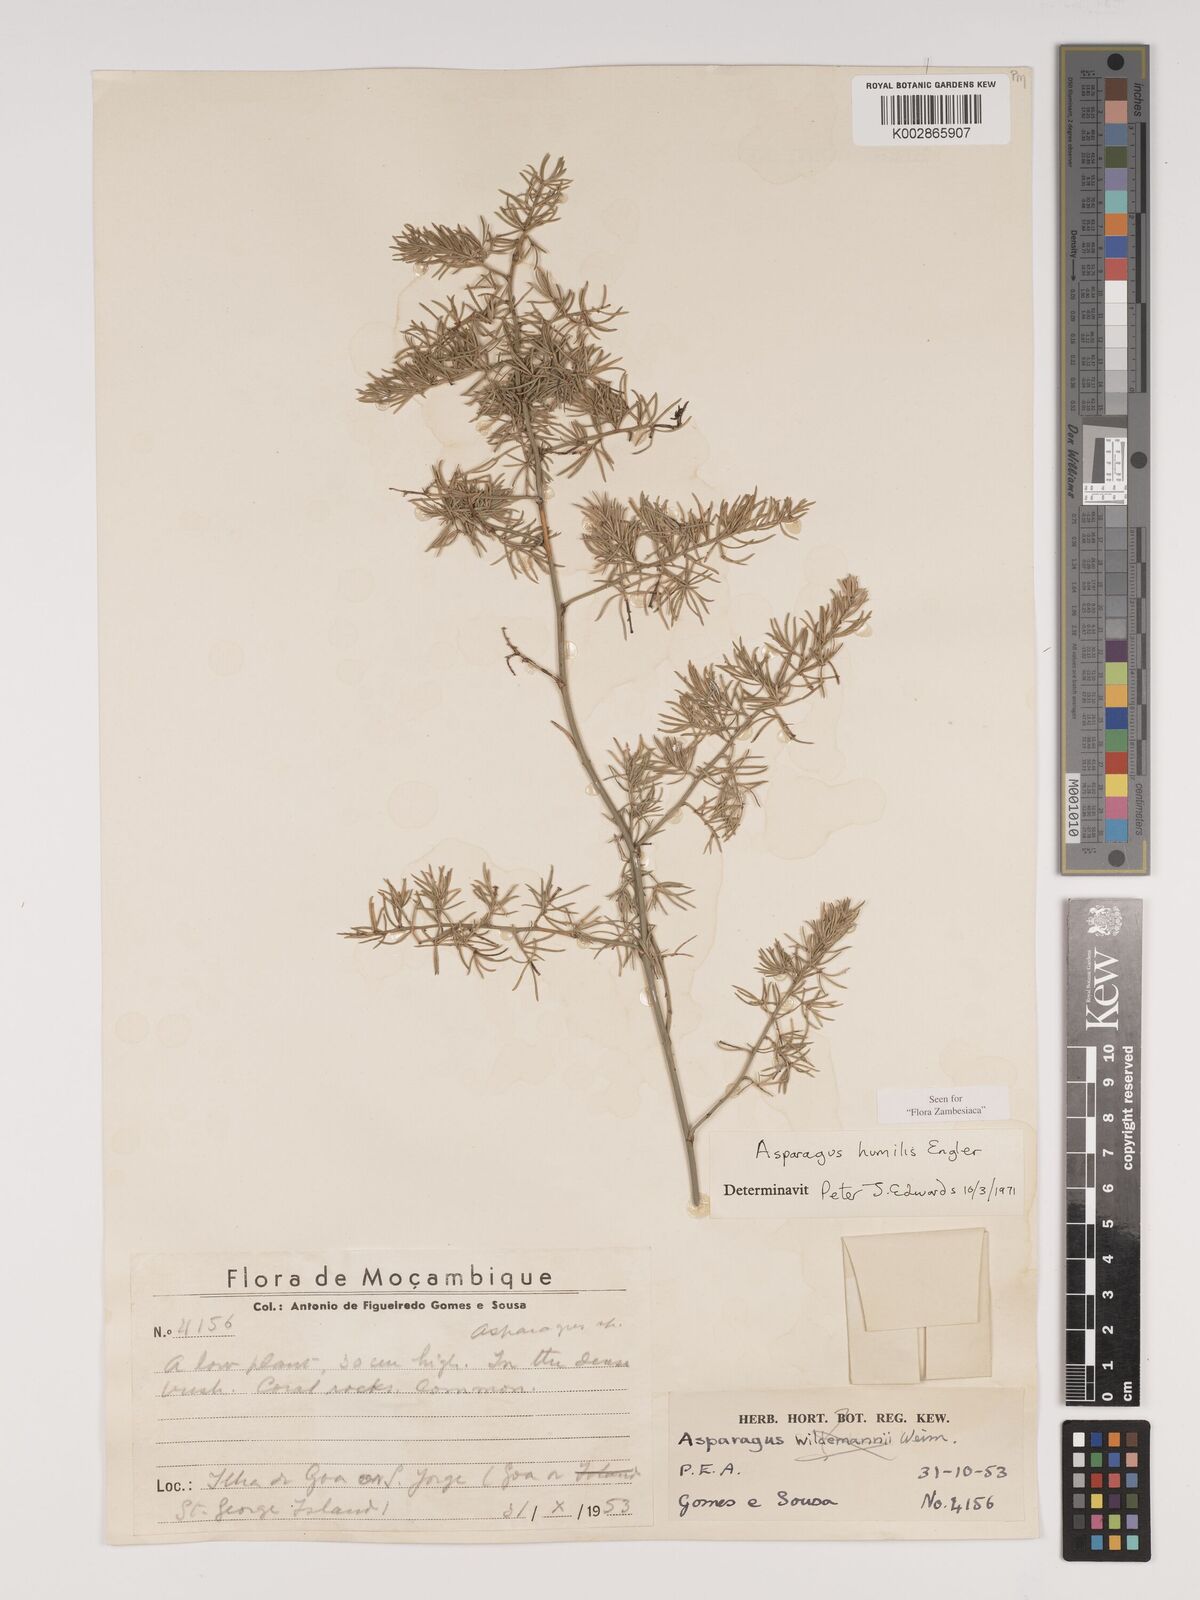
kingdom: Plantae
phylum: Tracheophyta
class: Liliopsida
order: Asparagales
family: Asparagaceae
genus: Asparagus
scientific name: Asparagus humilis
